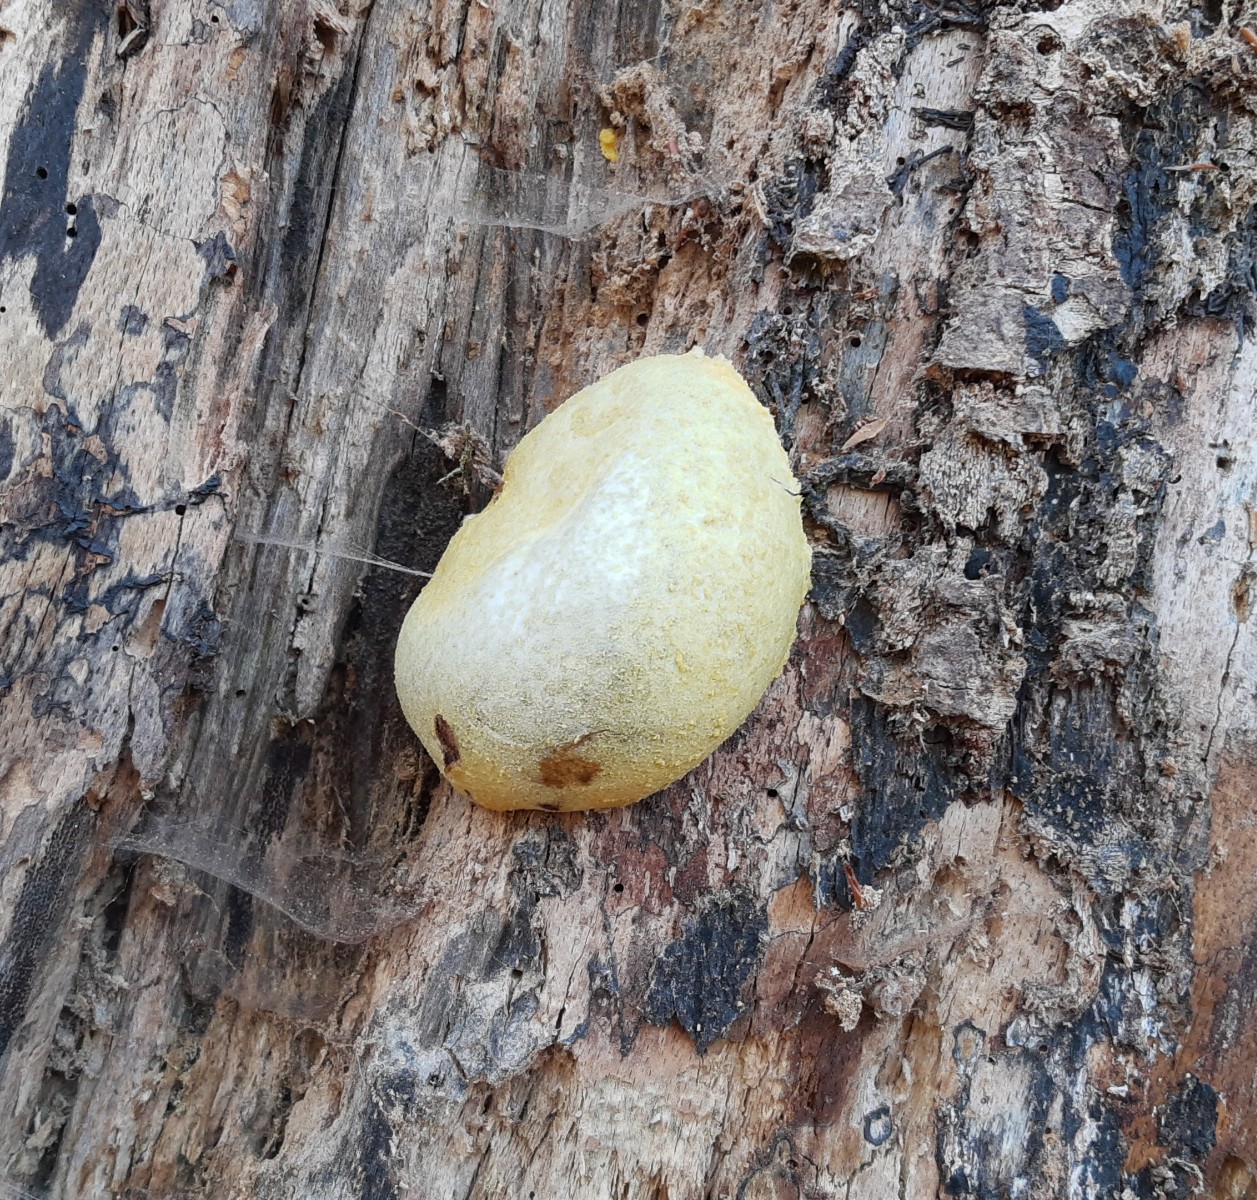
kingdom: Protozoa
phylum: Mycetozoa
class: Myxomycetes
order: Cribrariales
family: Tubiferaceae
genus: Reticularia
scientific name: Reticularia lycoperdon
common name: skinnende støvpude
